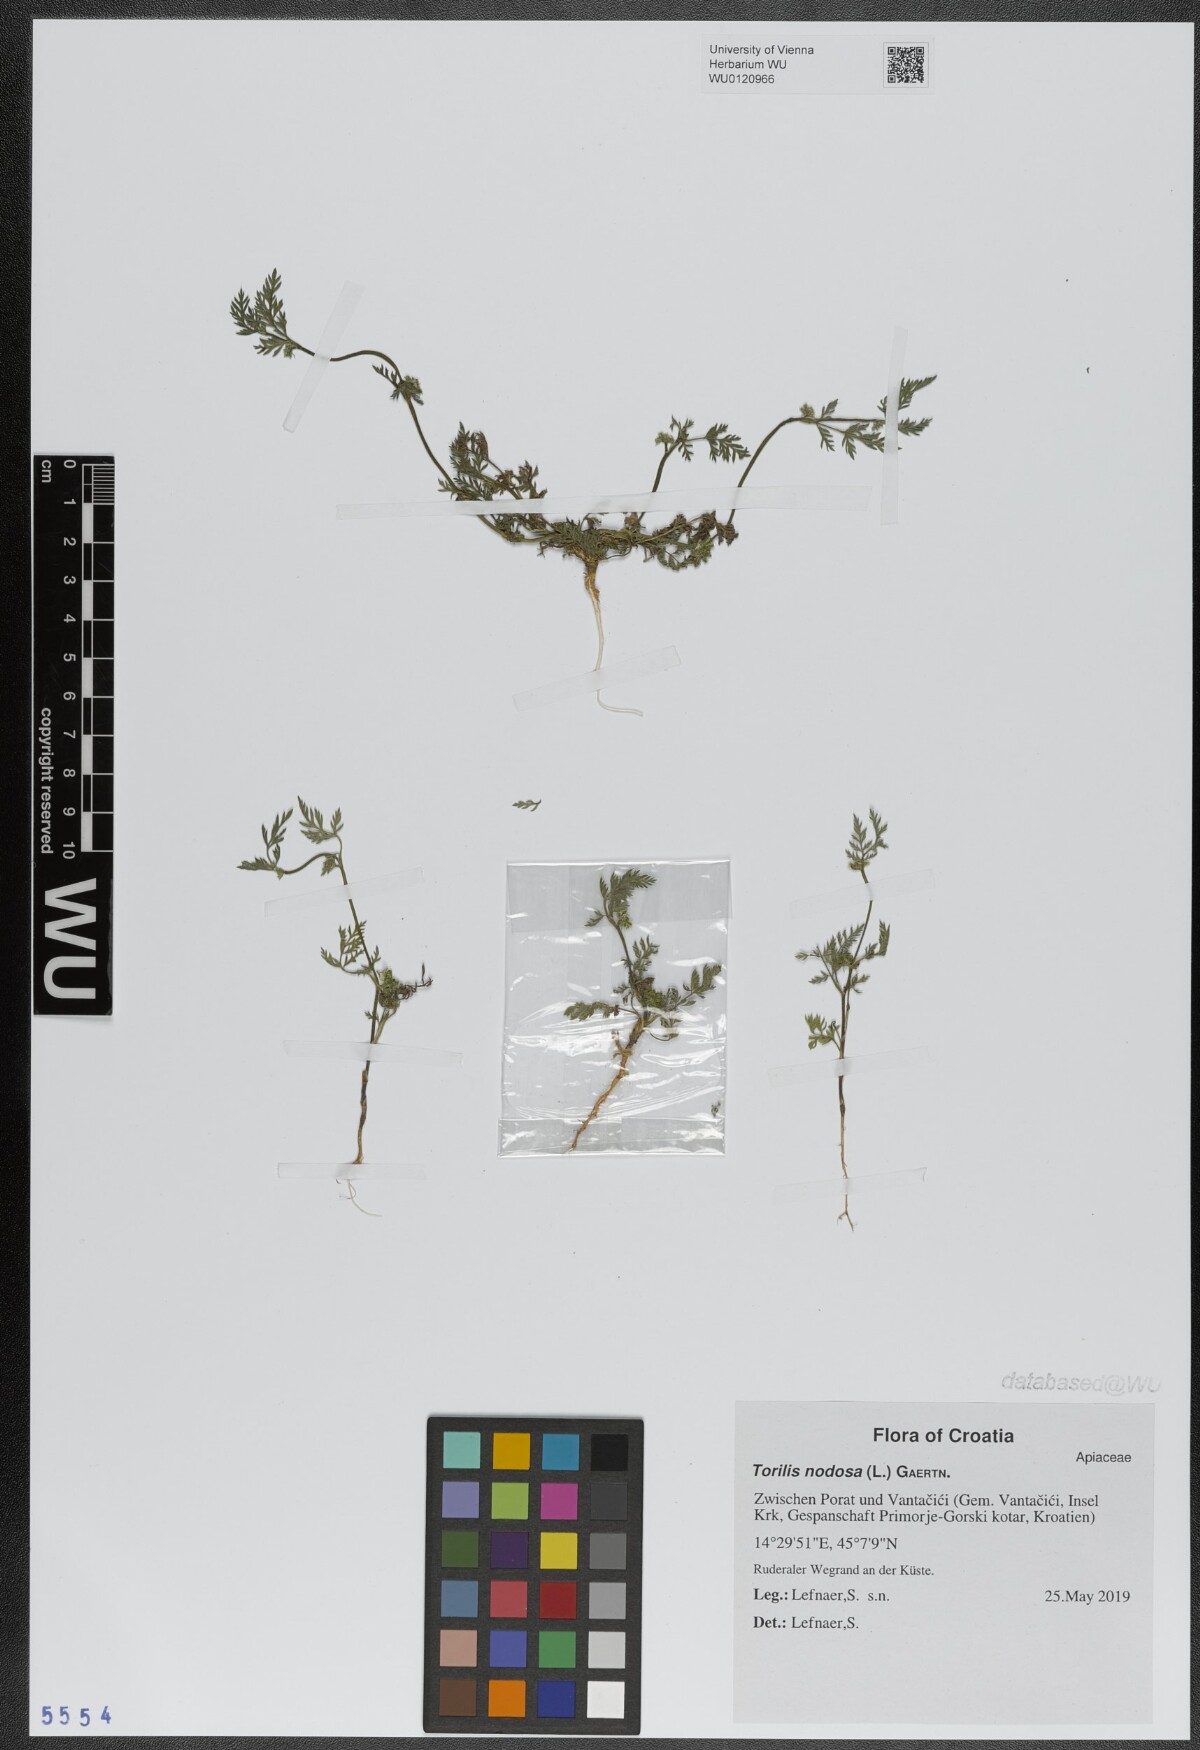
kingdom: Plantae
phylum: Tracheophyta
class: Magnoliopsida
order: Apiales
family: Apiaceae
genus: Torilis
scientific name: Torilis nodosa
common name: Knotted hedge-parsley
